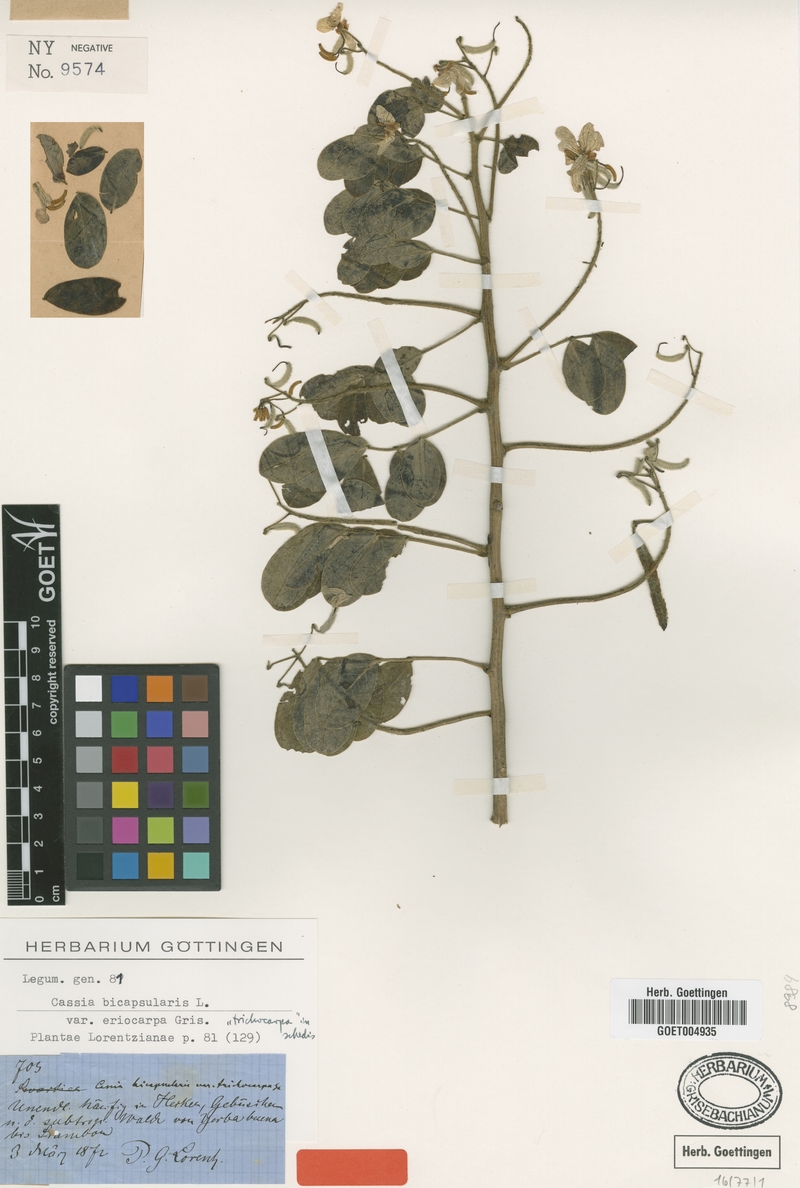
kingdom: Plantae
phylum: Tracheophyta
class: Magnoliopsida
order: Fabales
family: Fabaceae
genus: Senna
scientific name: Senna pendula
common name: Easter cassia
